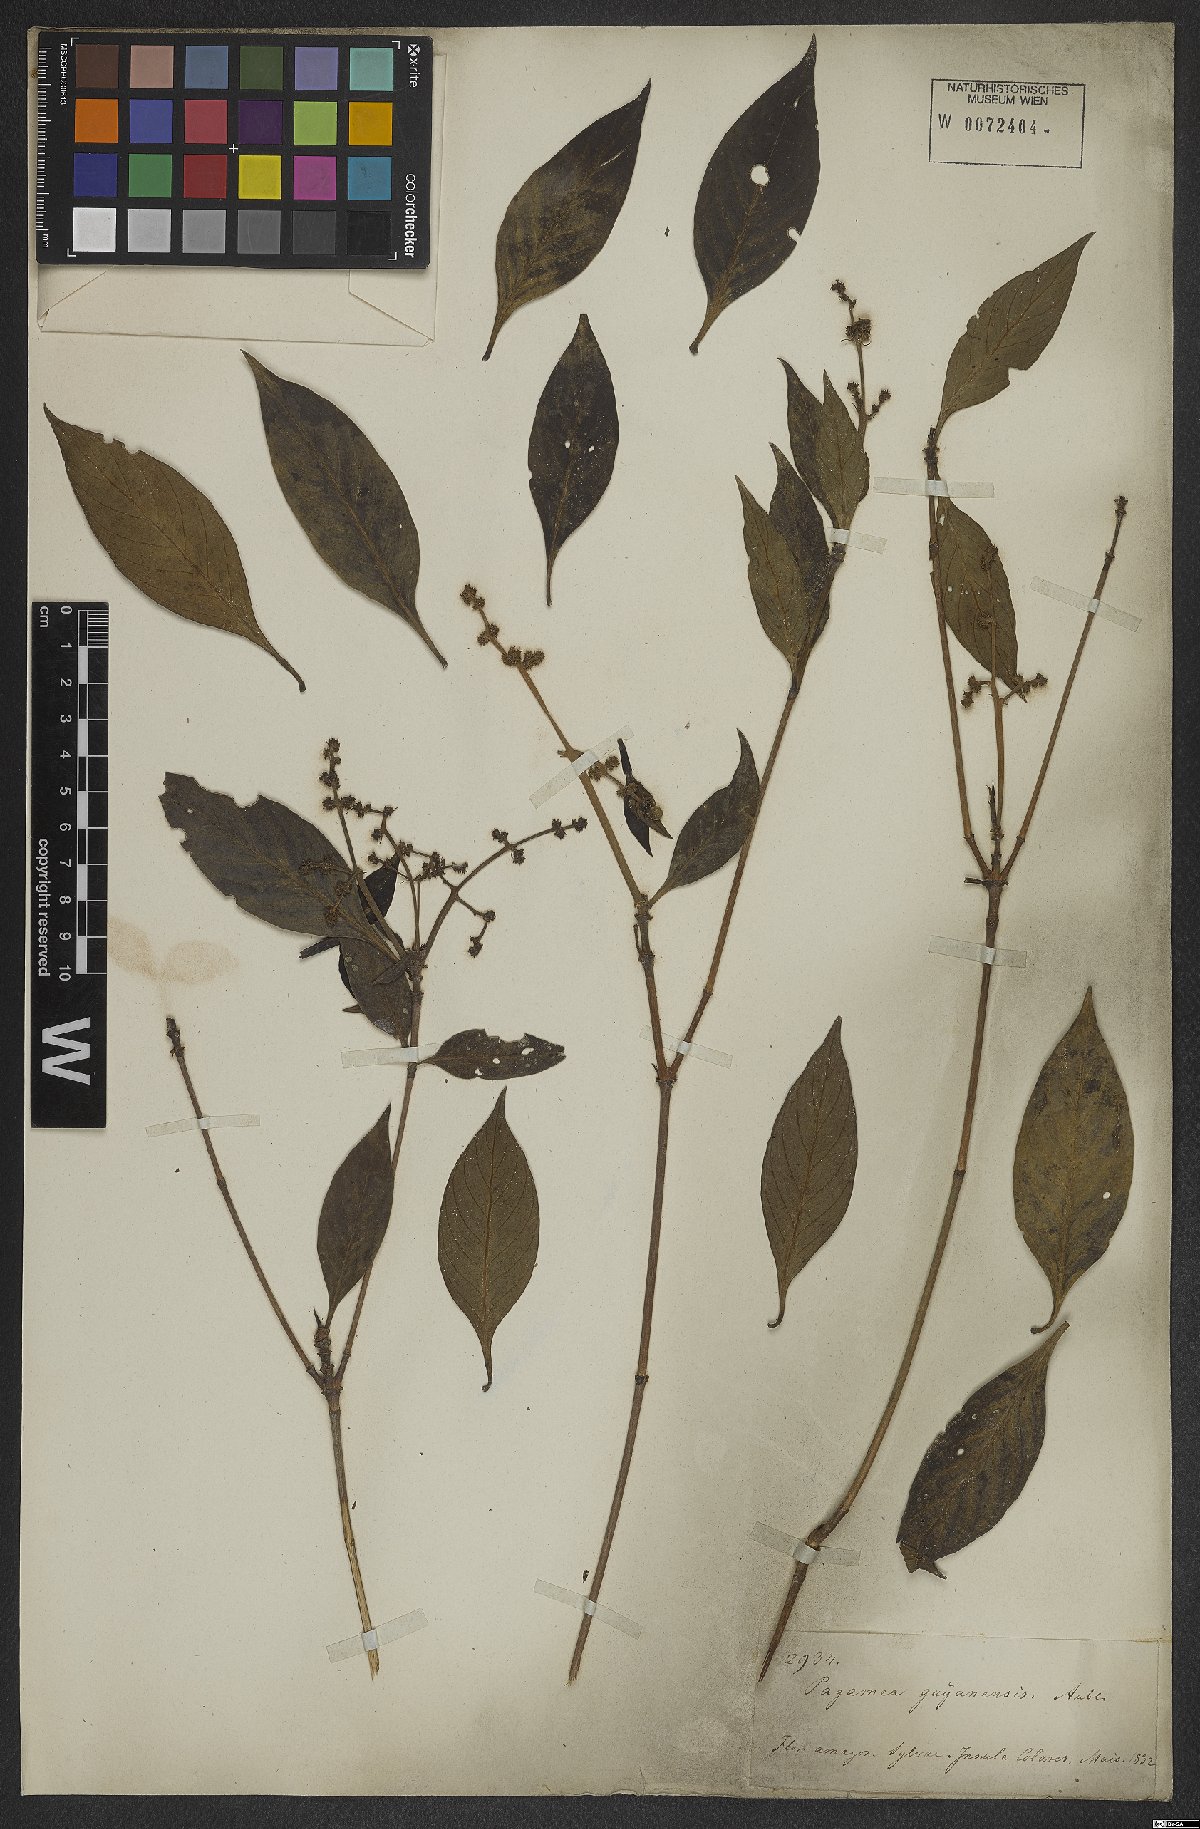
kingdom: Plantae
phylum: Tracheophyta
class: Magnoliopsida
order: Gentianales
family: Rubiaceae
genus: Pagamea
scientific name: Pagamea guianensis
